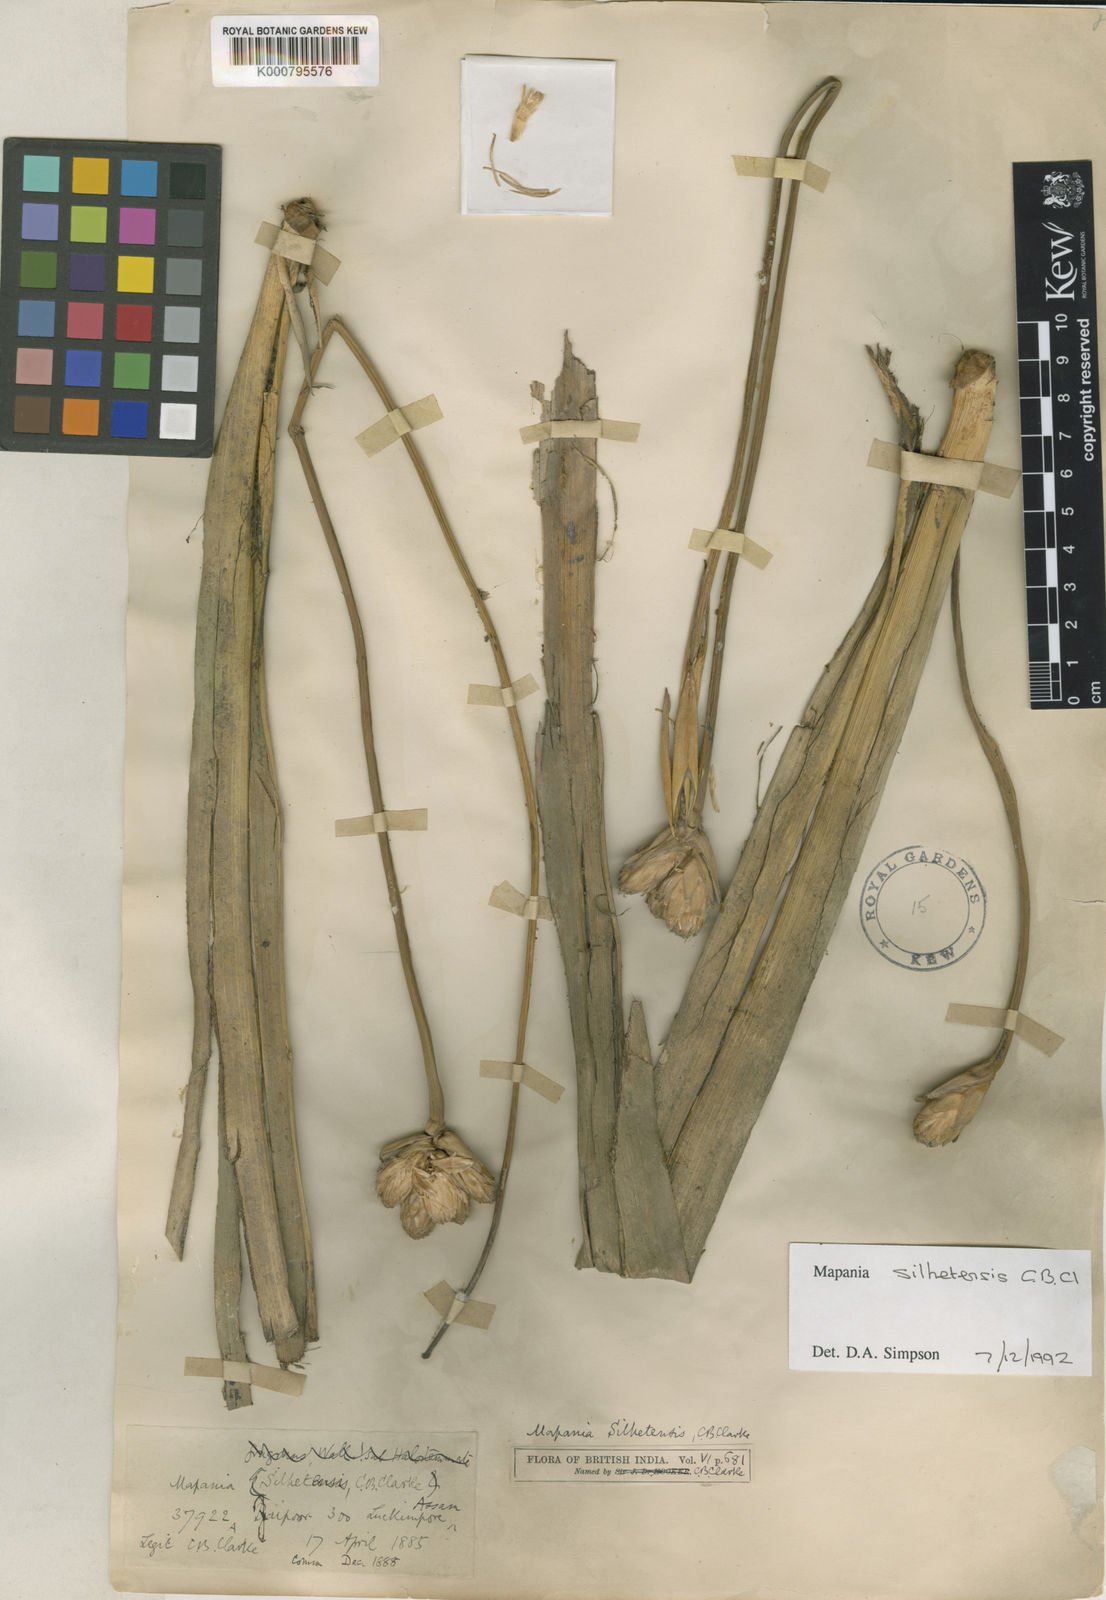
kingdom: Plantae
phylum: Tracheophyta
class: Liliopsida
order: Poales
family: Cyperaceae
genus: Mapania
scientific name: Mapania
